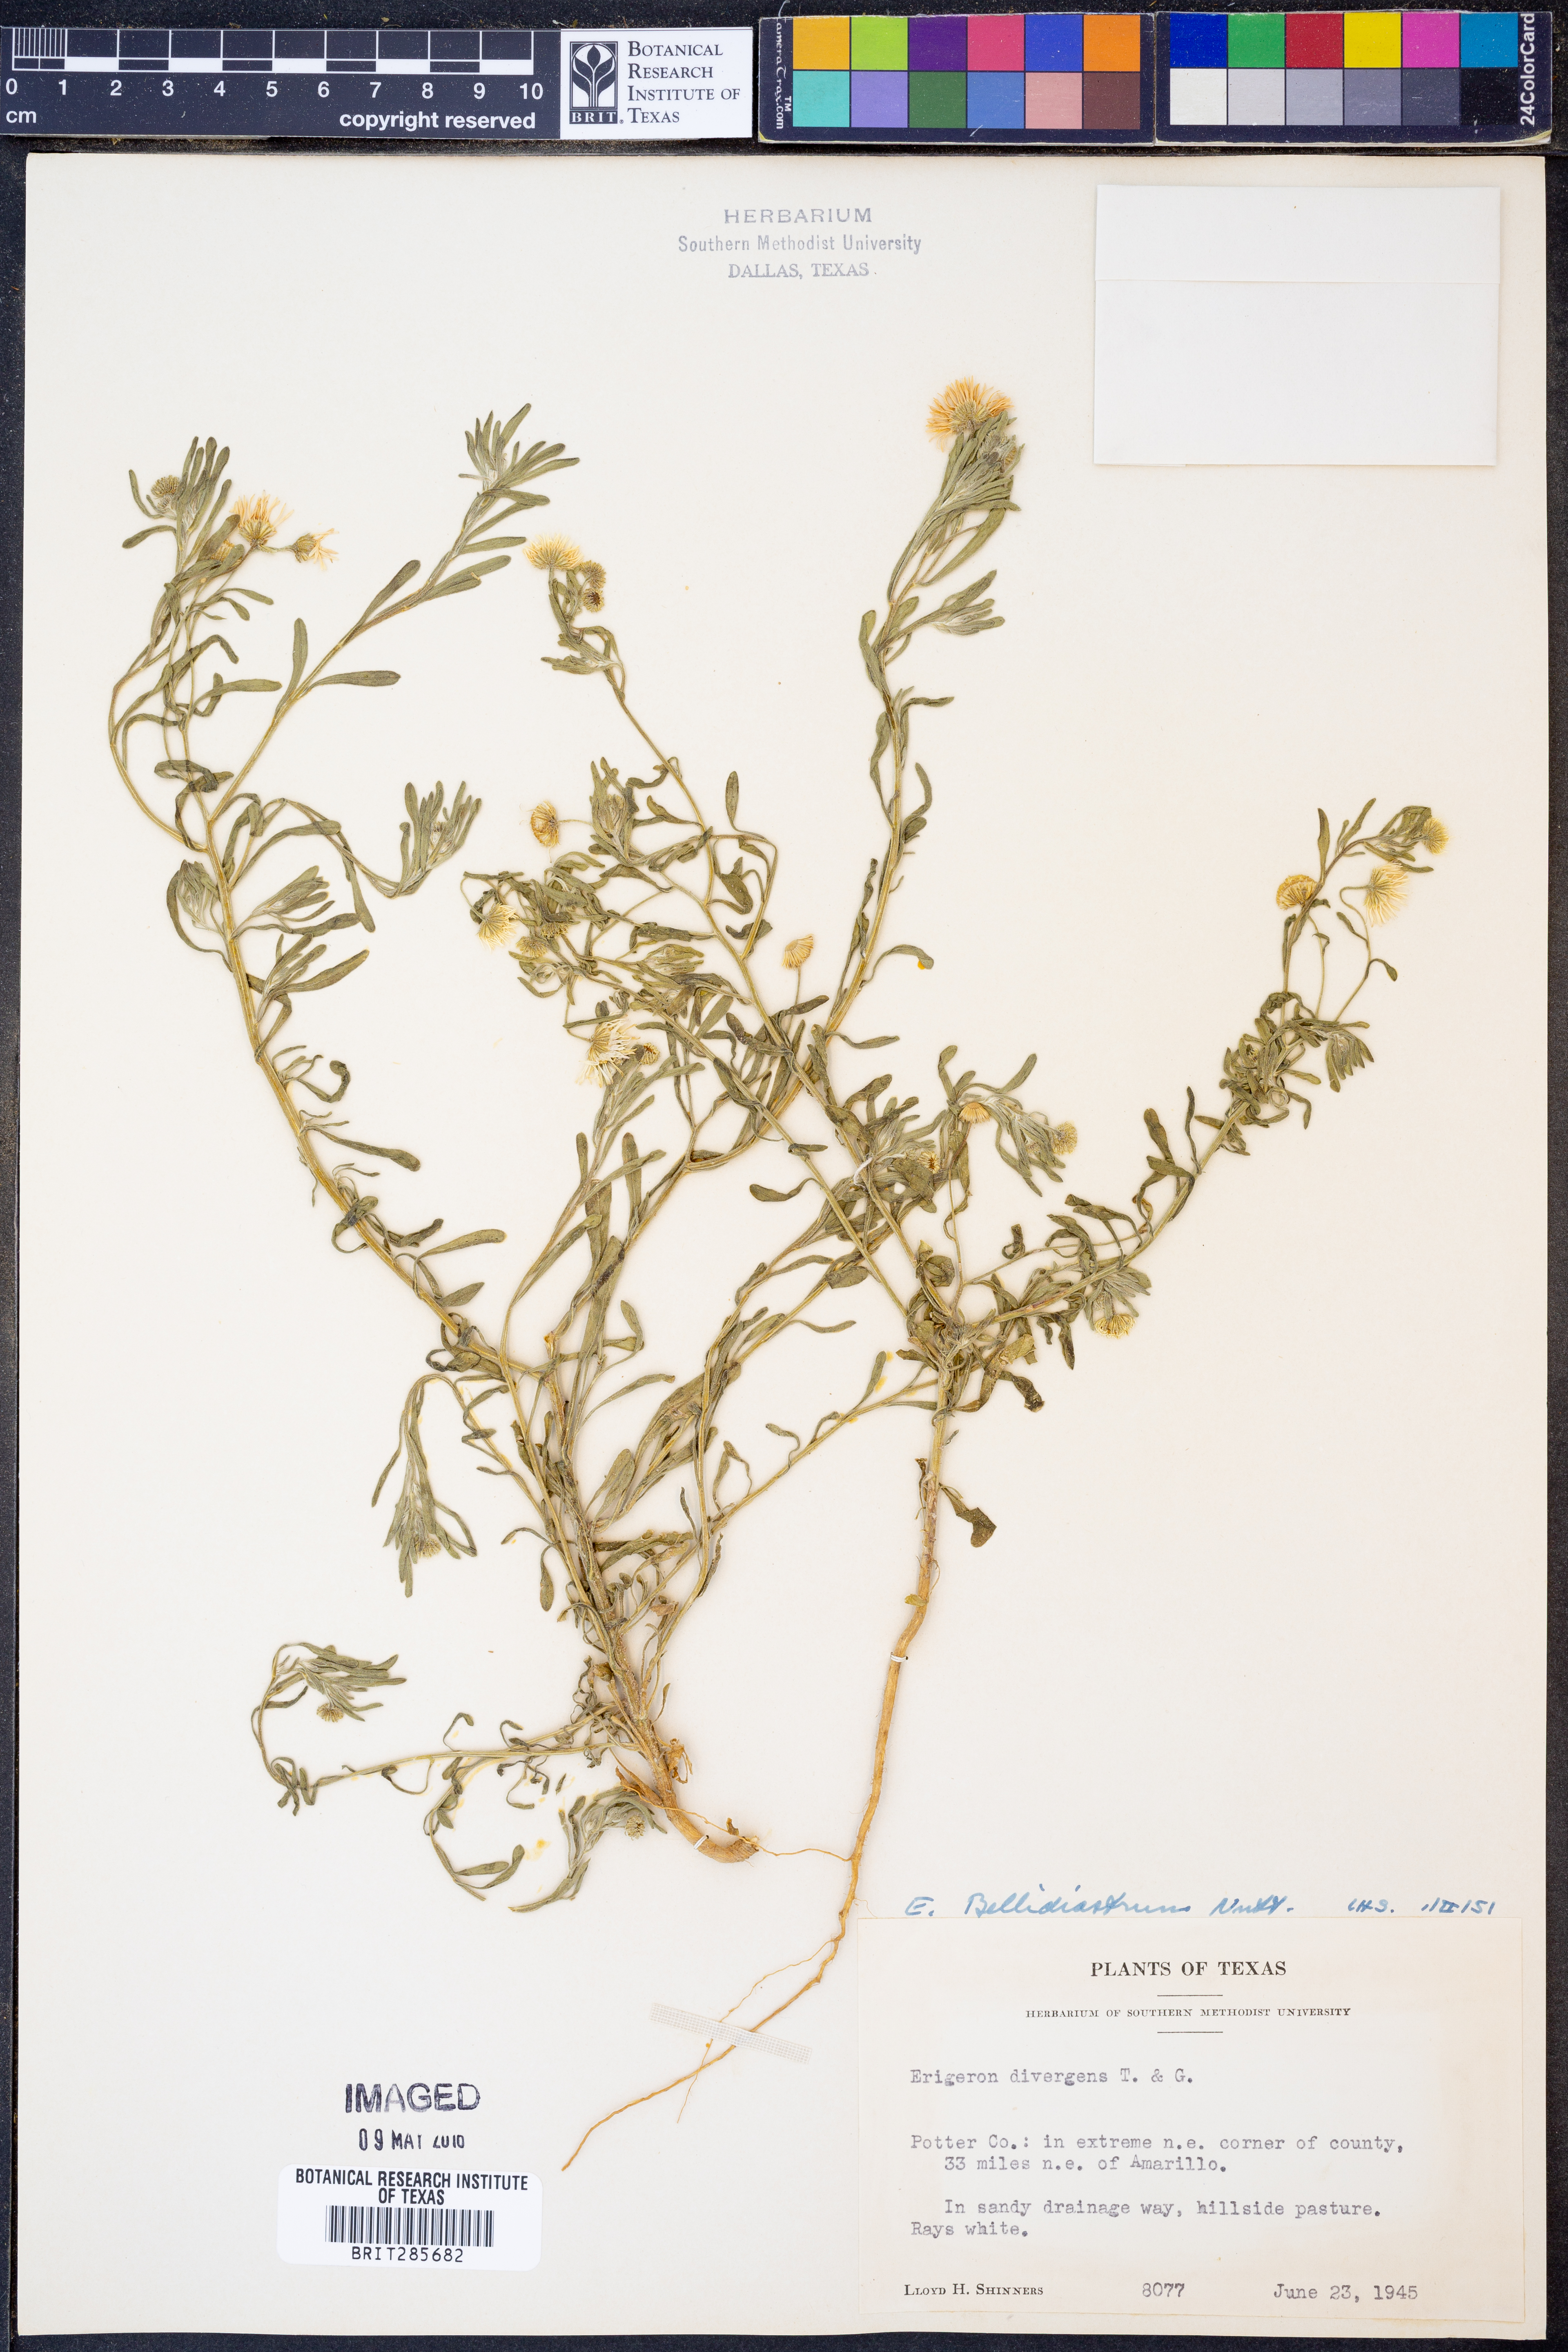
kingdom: Plantae
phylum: Tracheophyta
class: Magnoliopsida
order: Asterales
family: Asteraceae
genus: Erigeron
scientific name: Erigeron bellidiastrum
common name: Sand fleabane
